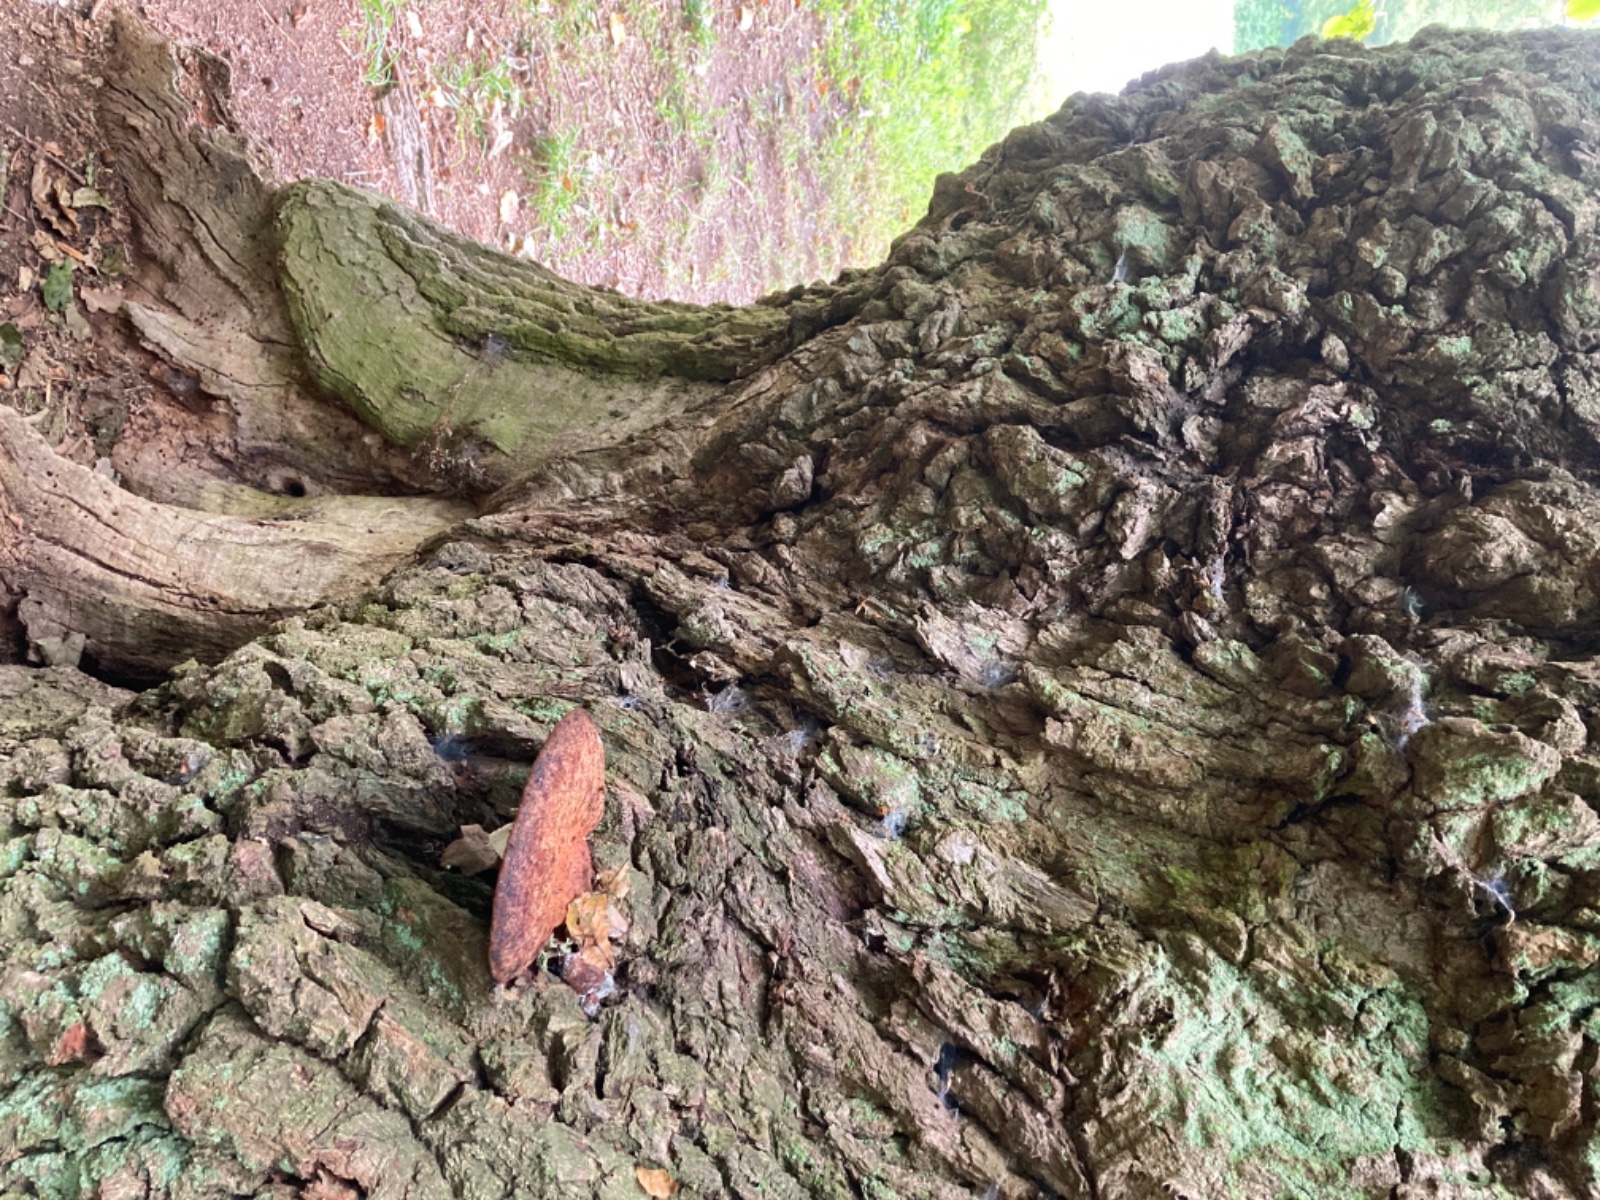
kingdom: Fungi
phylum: Basidiomycota
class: Agaricomycetes
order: Agaricales
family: Fistulinaceae
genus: Fistulina
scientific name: Fistulina hepatica
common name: oksetunge
